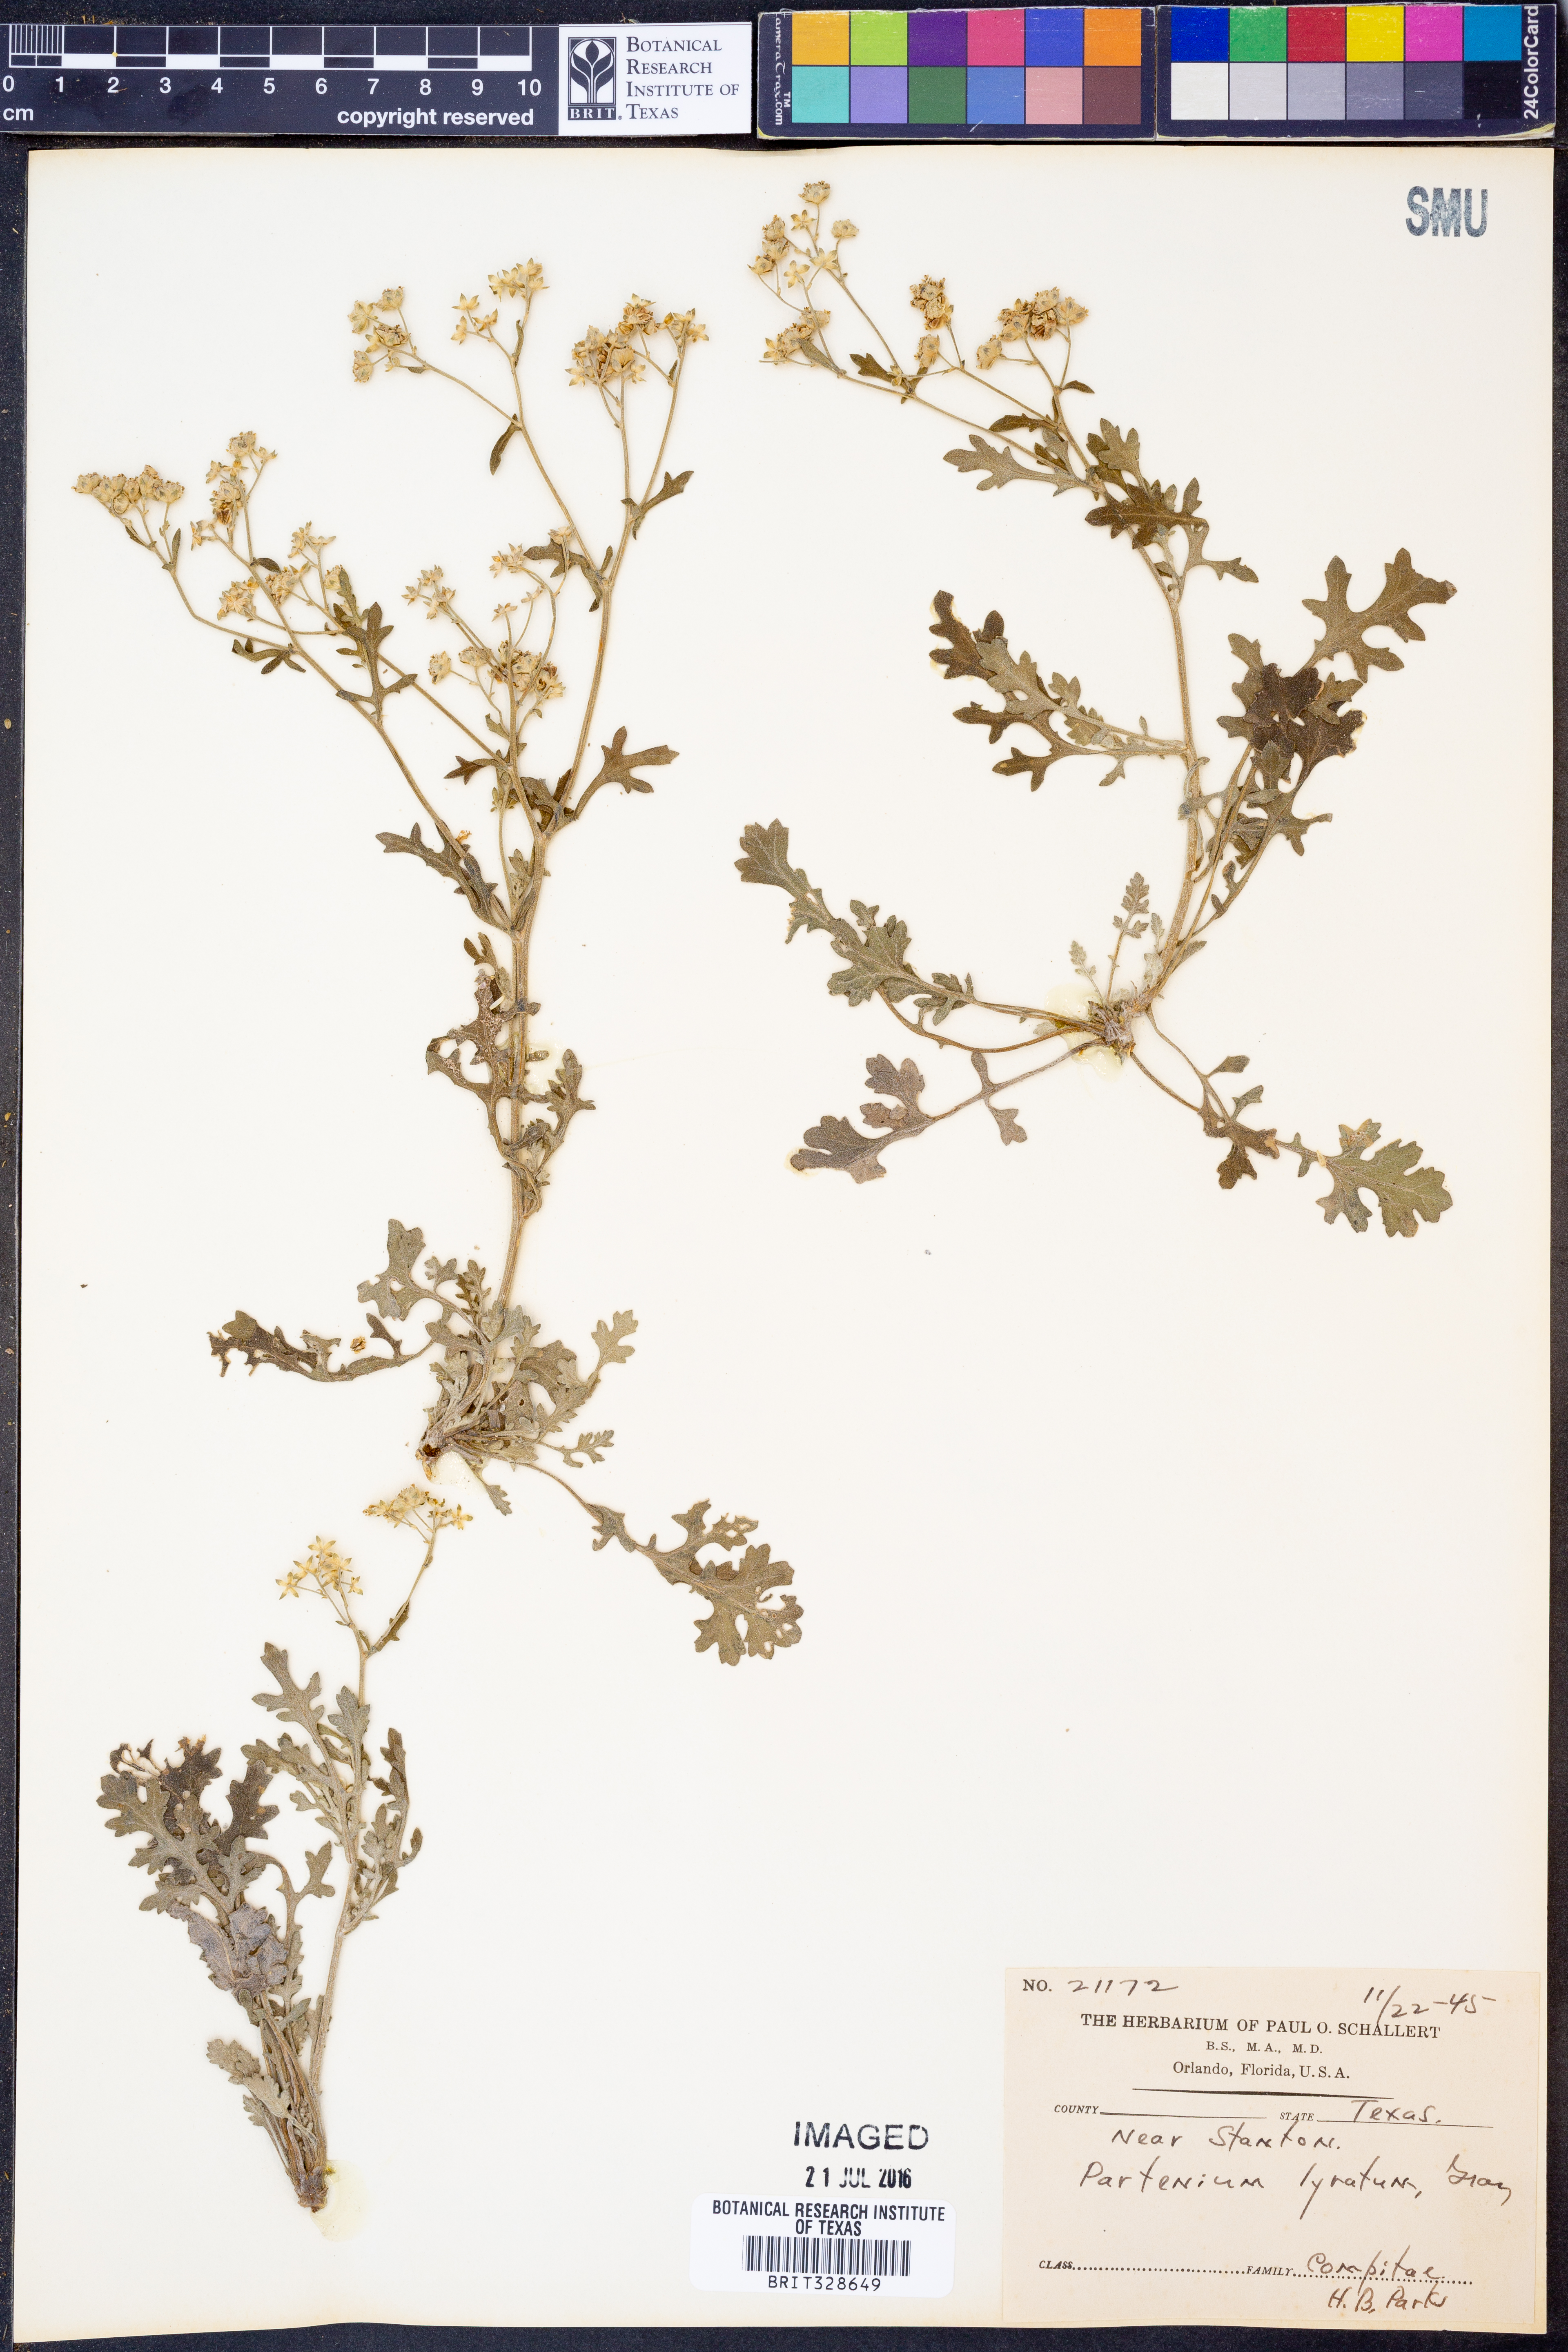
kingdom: Plantae
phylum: Tracheophyta
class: Magnoliopsida
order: Asterales
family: Asteraceae
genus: Parthenium
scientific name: Parthenium confertum
